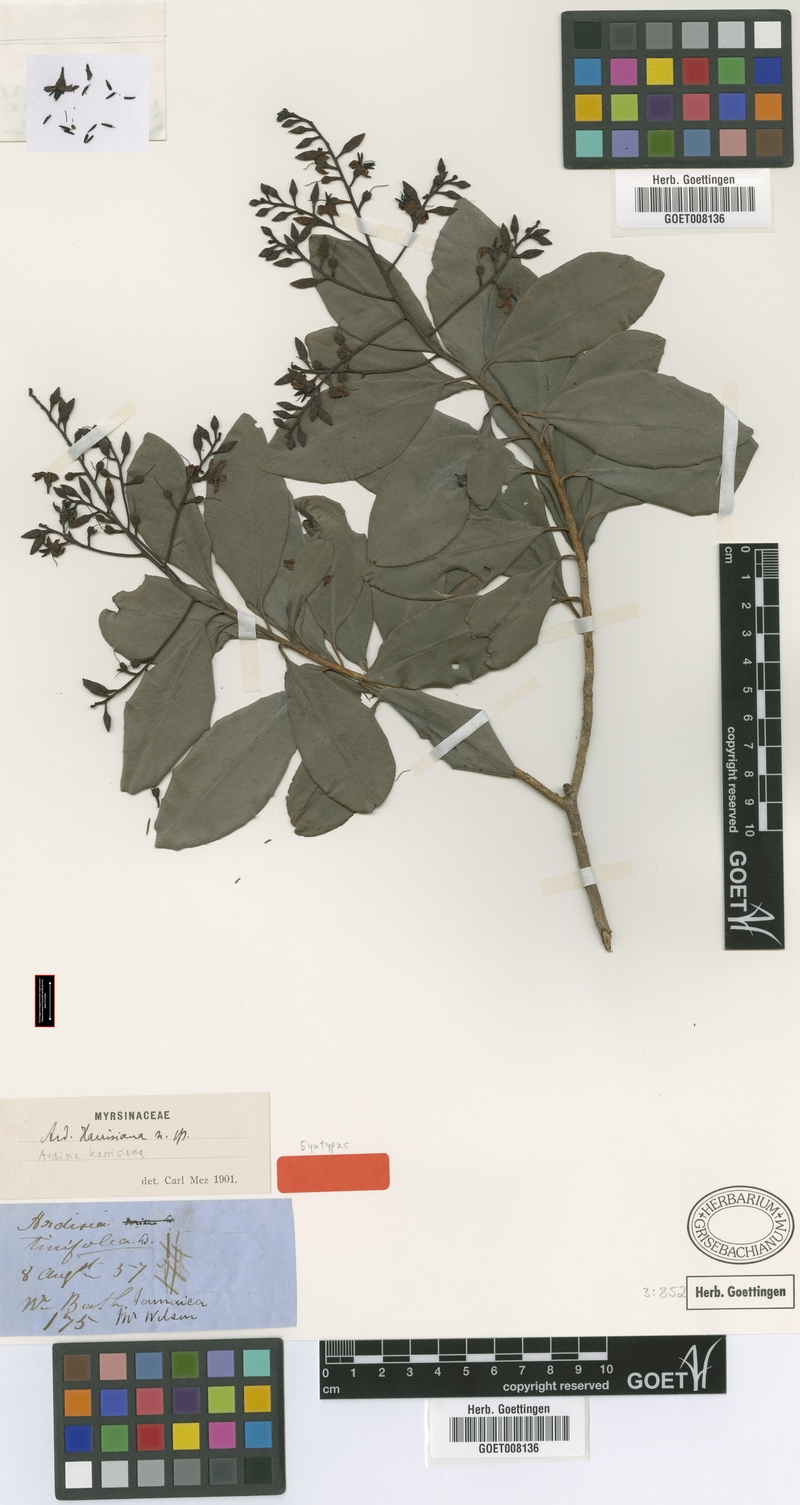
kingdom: Plantae
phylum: Tracheophyta
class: Magnoliopsida
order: Ericales
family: Primulaceae
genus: Ardisia
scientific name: Ardisia tinifolia
